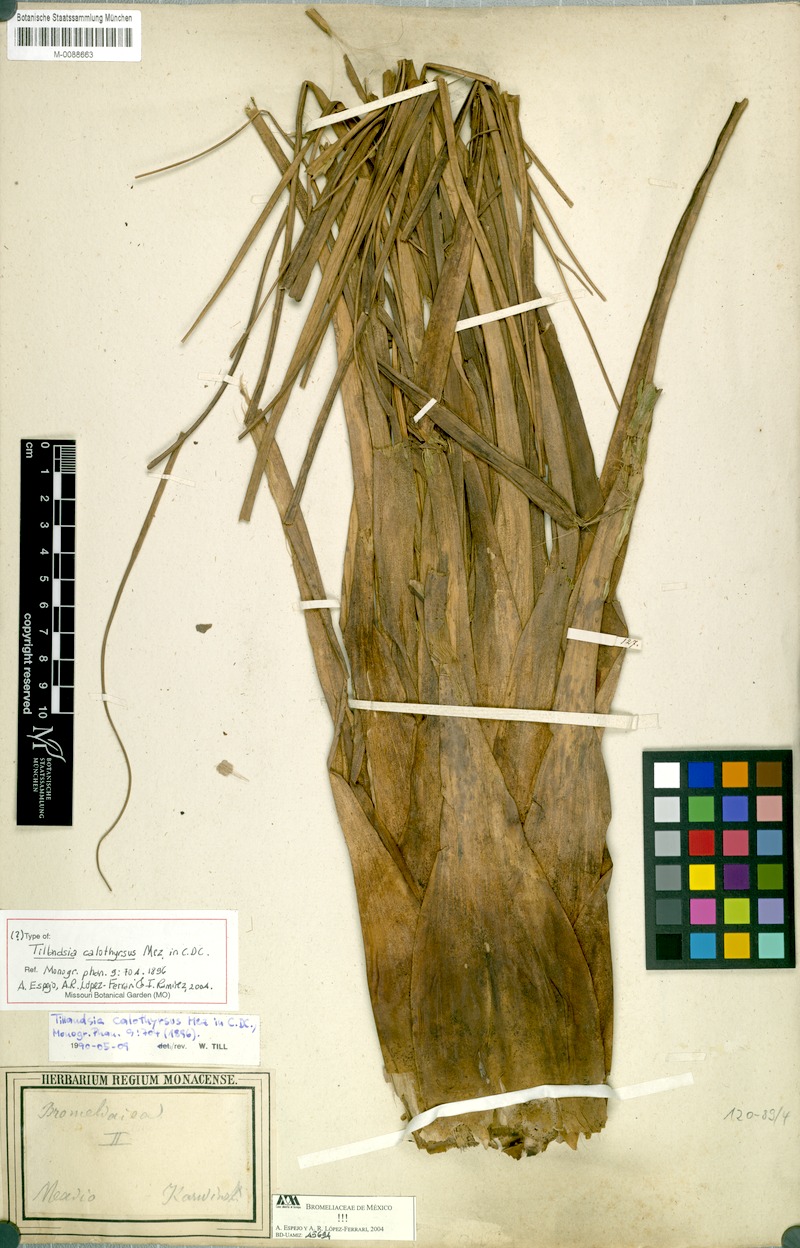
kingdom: Plantae
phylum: Tracheophyta
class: Liliopsida
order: Poales
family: Bromeliaceae
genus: Tillandsia
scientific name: Tillandsia calothyrsus
